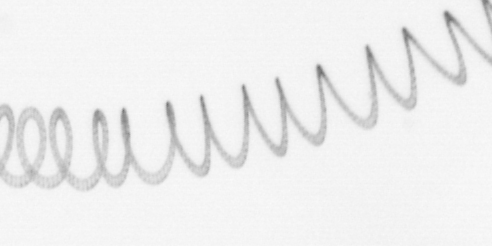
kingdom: Chromista
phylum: Ochrophyta
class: Bacillariophyceae
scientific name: Bacillariophyceae
